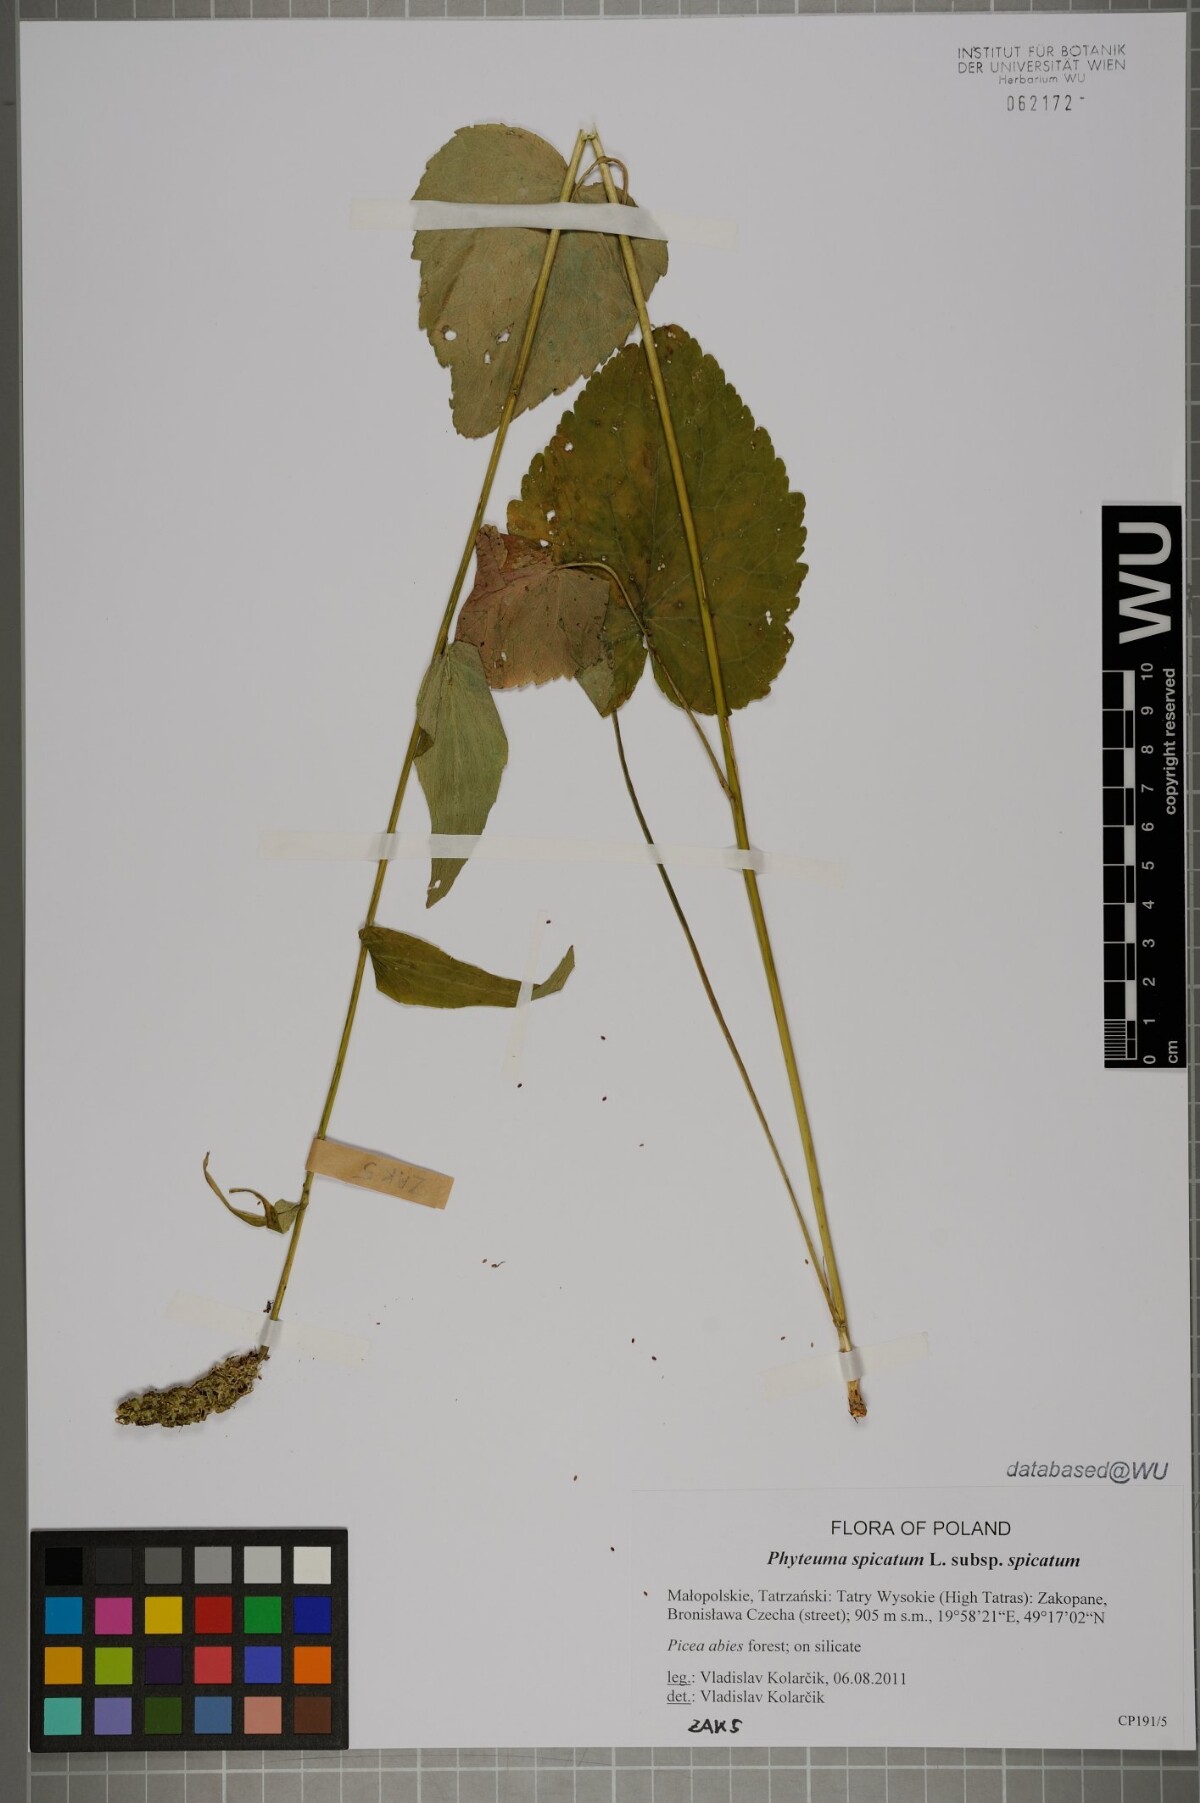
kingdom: Plantae
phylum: Tracheophyta
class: Magnoliopsida
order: Asterales
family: Campanulaceae
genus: Phyteuma
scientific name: Phyteuma spicatum
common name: Spiked rampion
